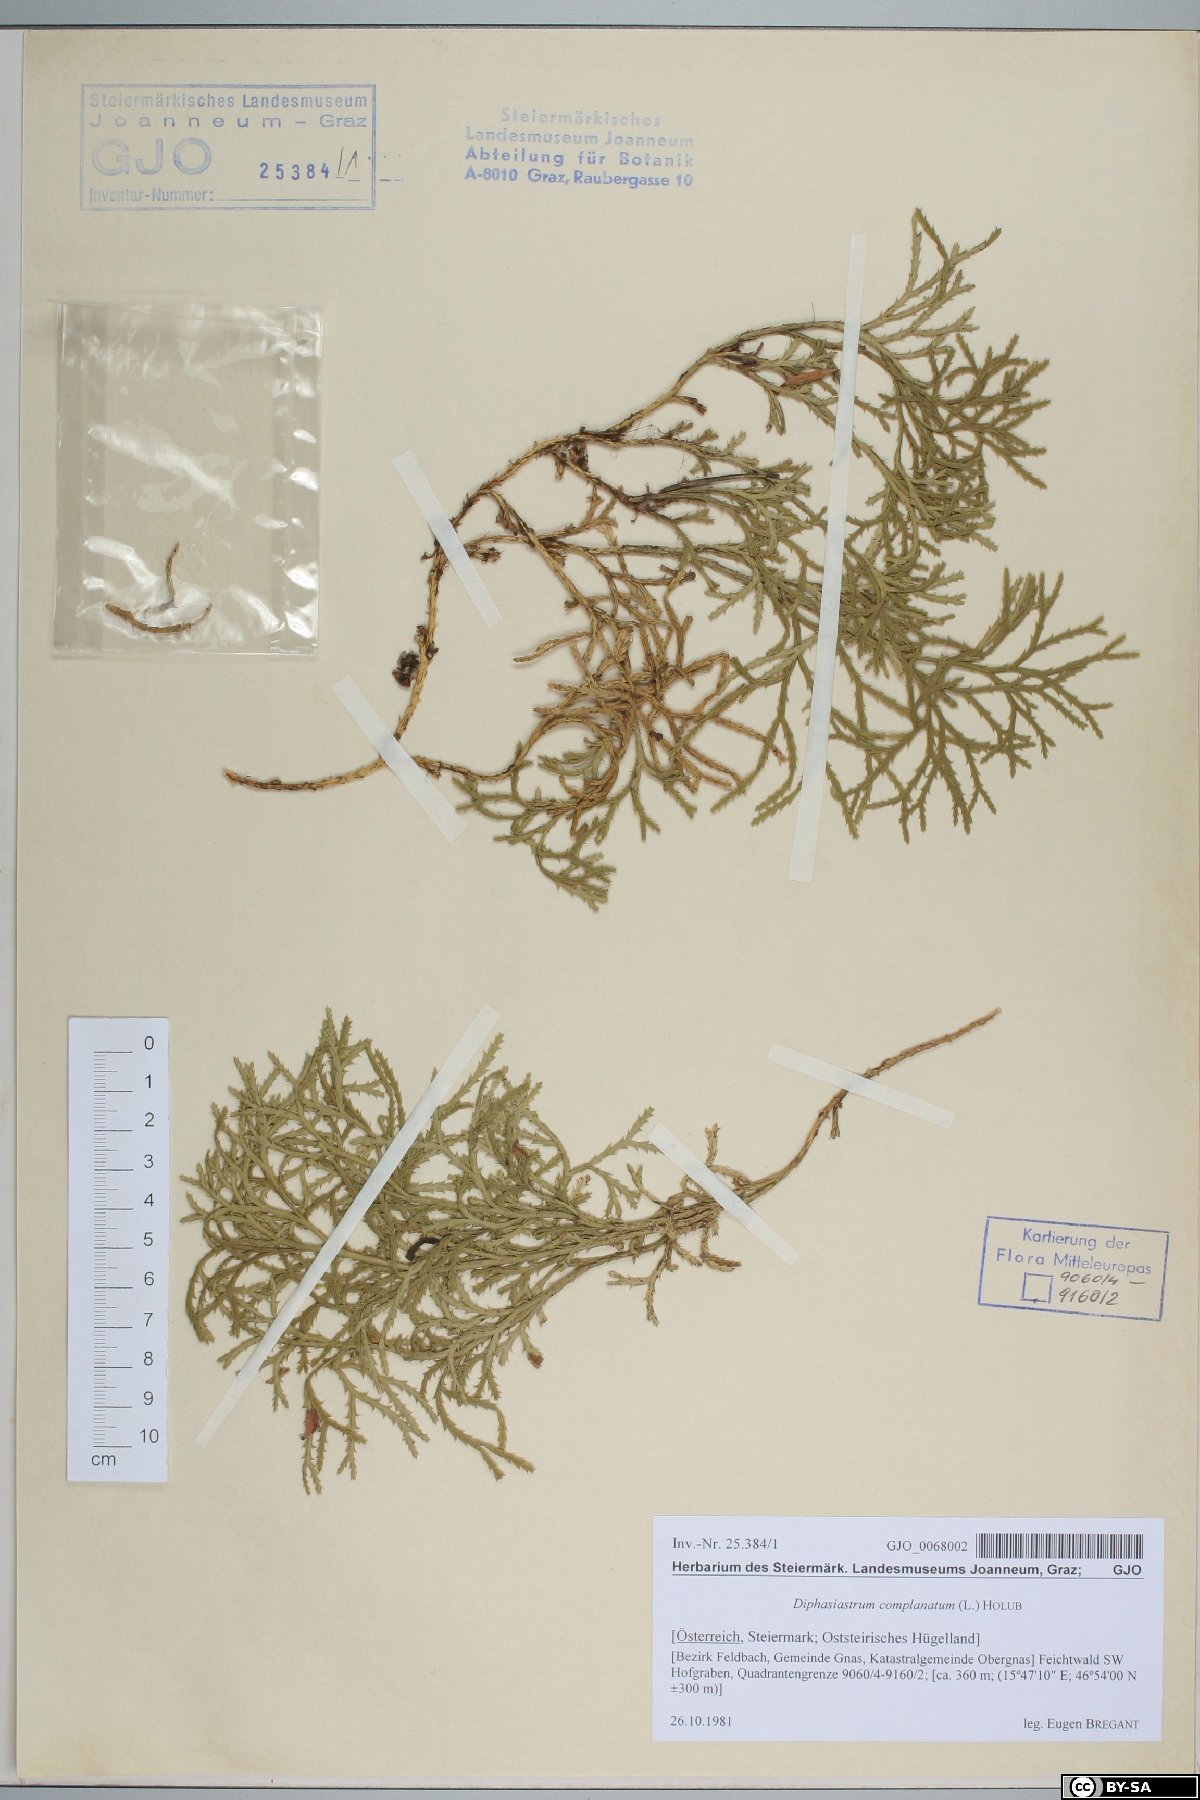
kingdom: Plantae
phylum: Tracheophyta
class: Lycopodiopsida
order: Lycopodiales
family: Lycopodiaceae
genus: Diphasiastrum
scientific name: Diphasiastrum complanatum
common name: Northern running-pine
